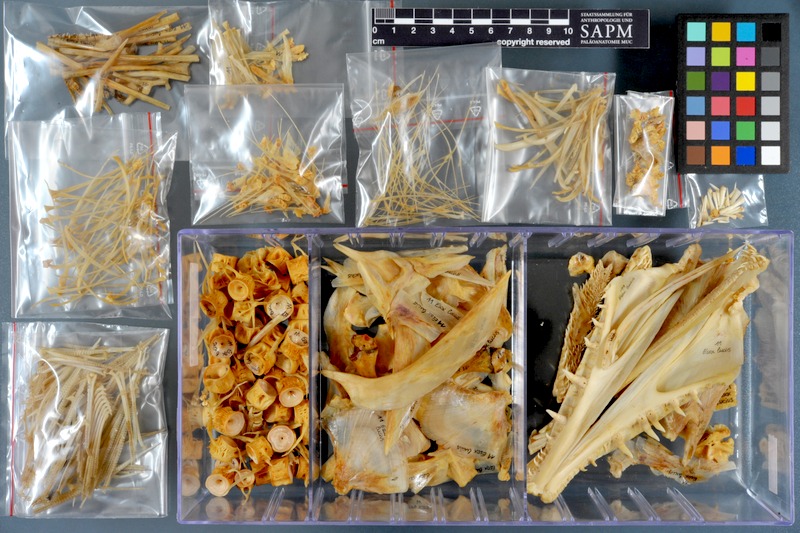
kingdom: Animalia
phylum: Chordata
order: Esociformes
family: Esocidae
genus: Esox
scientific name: Esox lucius
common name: Northern pike
